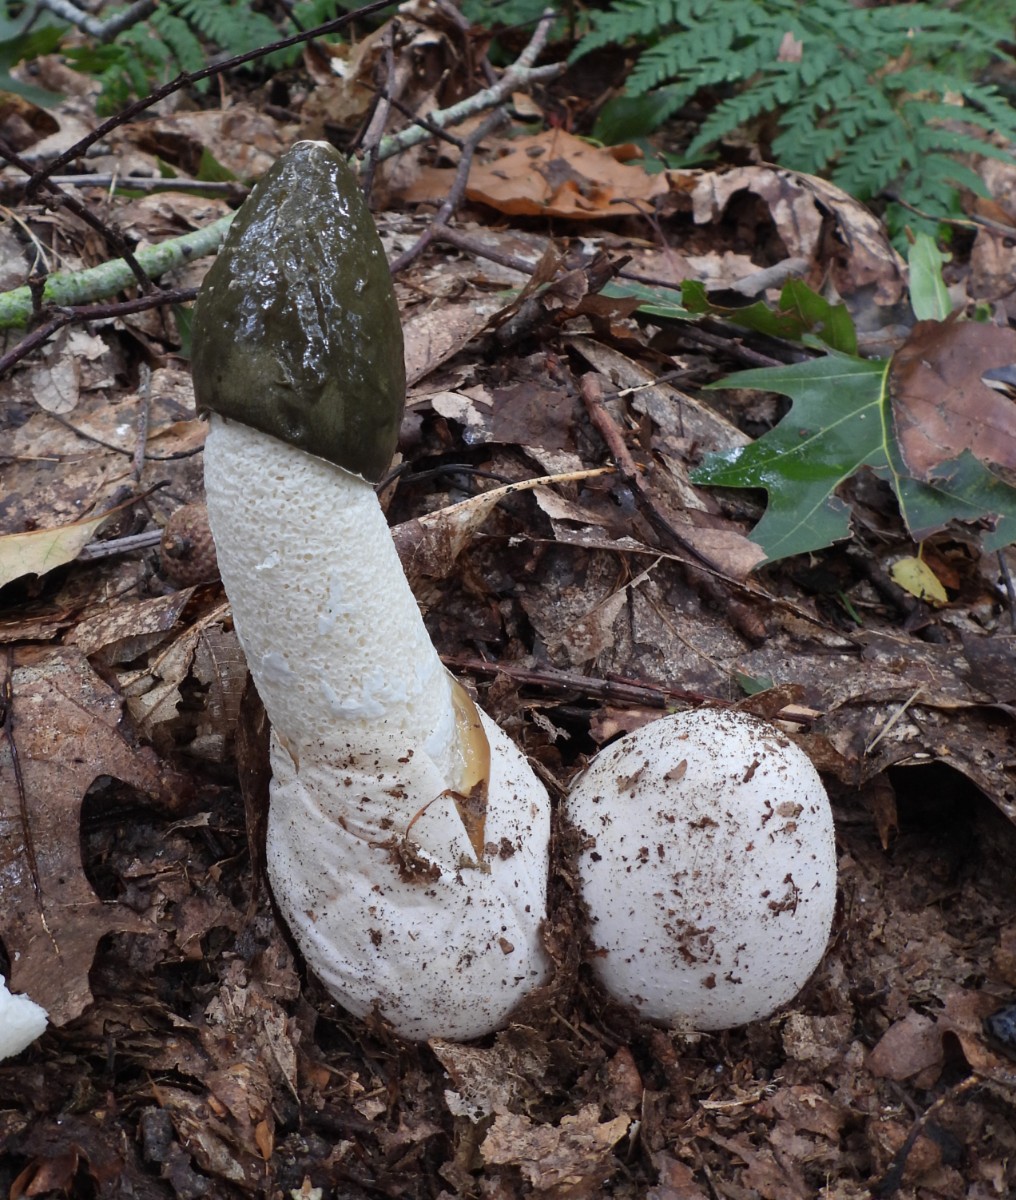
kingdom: Fungi
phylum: Basidiomycota
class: Agaricomycetes
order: Phallales
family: Phallaceae
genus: Phallus
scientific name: Phallus impudicus
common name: almindelig stinksvamp
